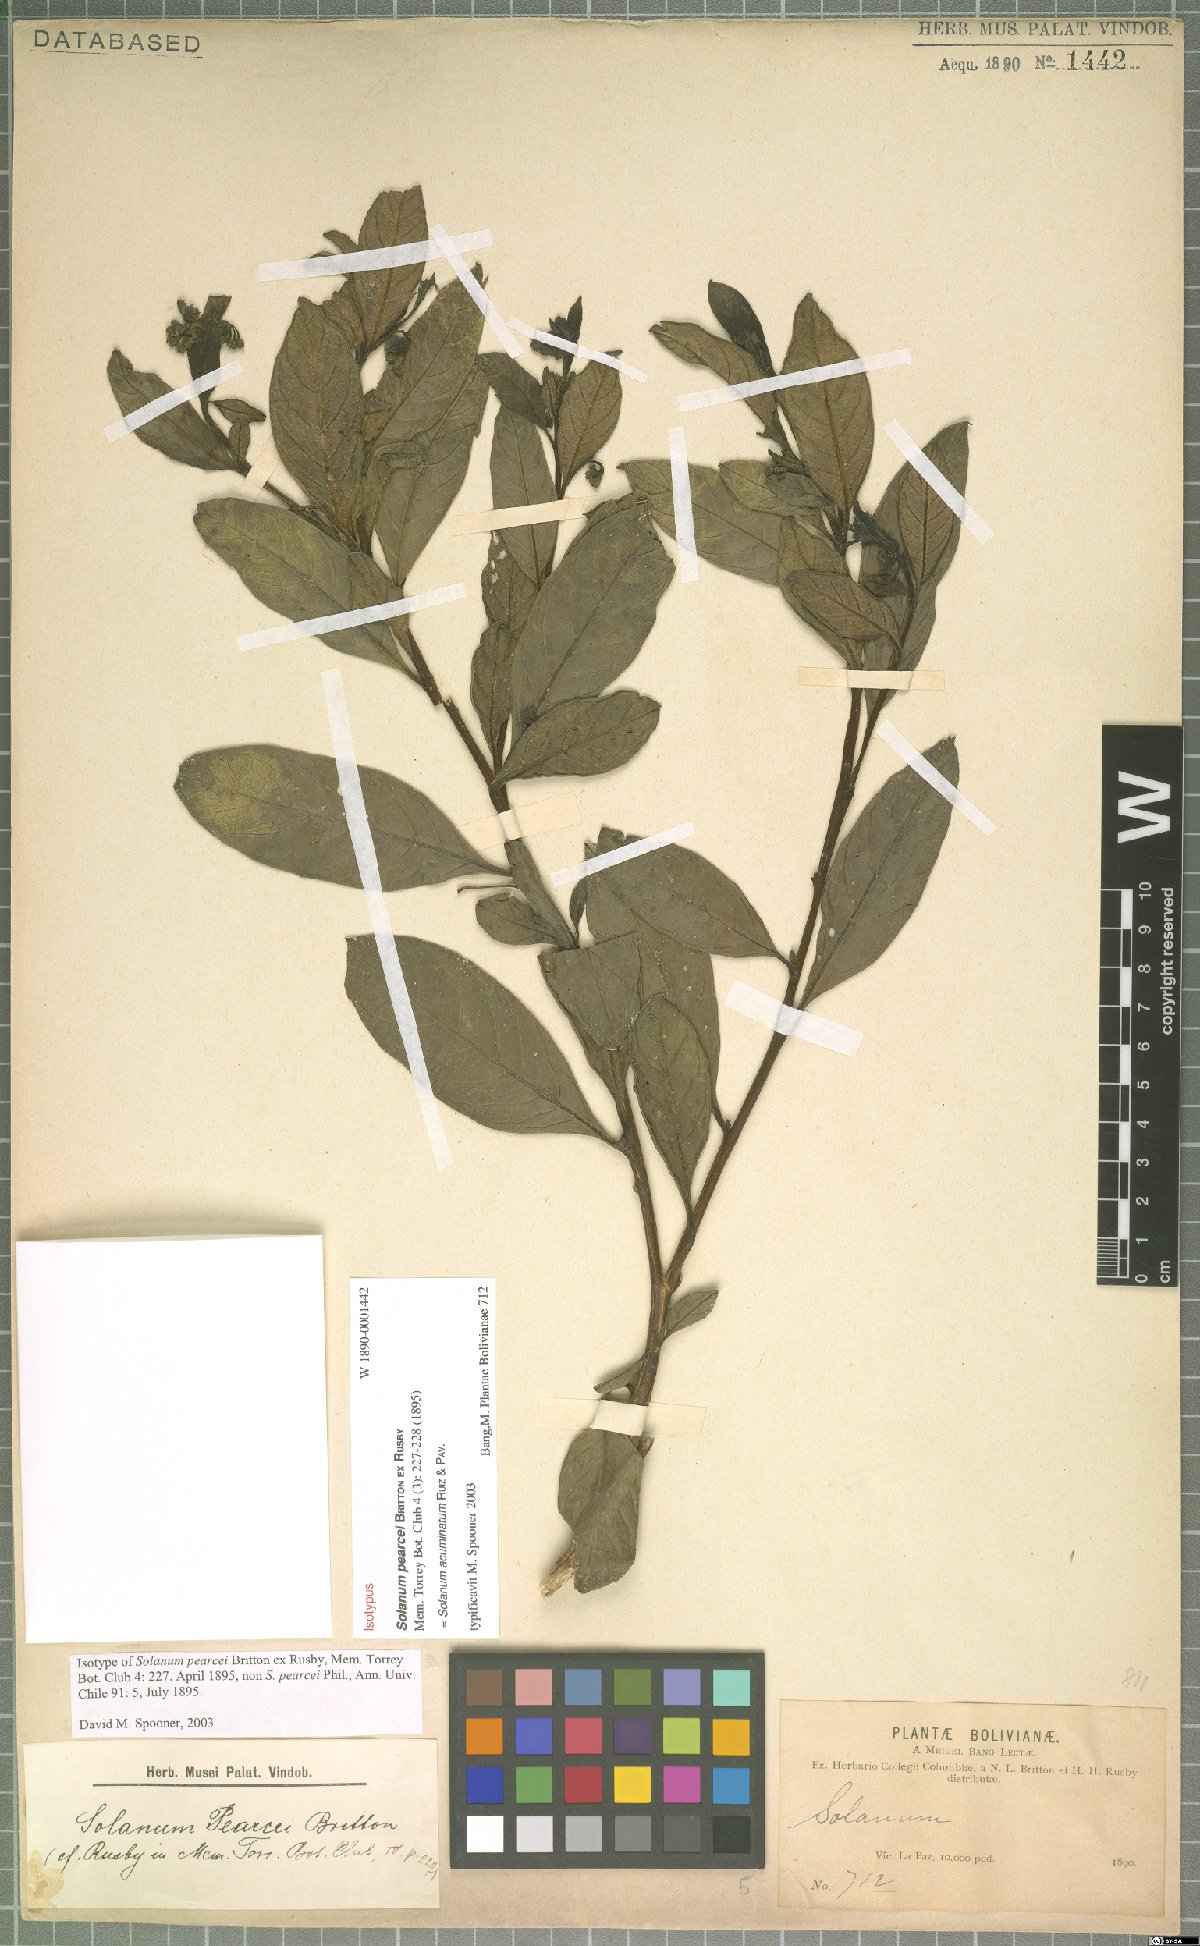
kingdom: Plantae
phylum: Tracheophyta
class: Magnoliopsida
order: Solanales
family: Solanaceae
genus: Solanum
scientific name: Solanum acuminatum
